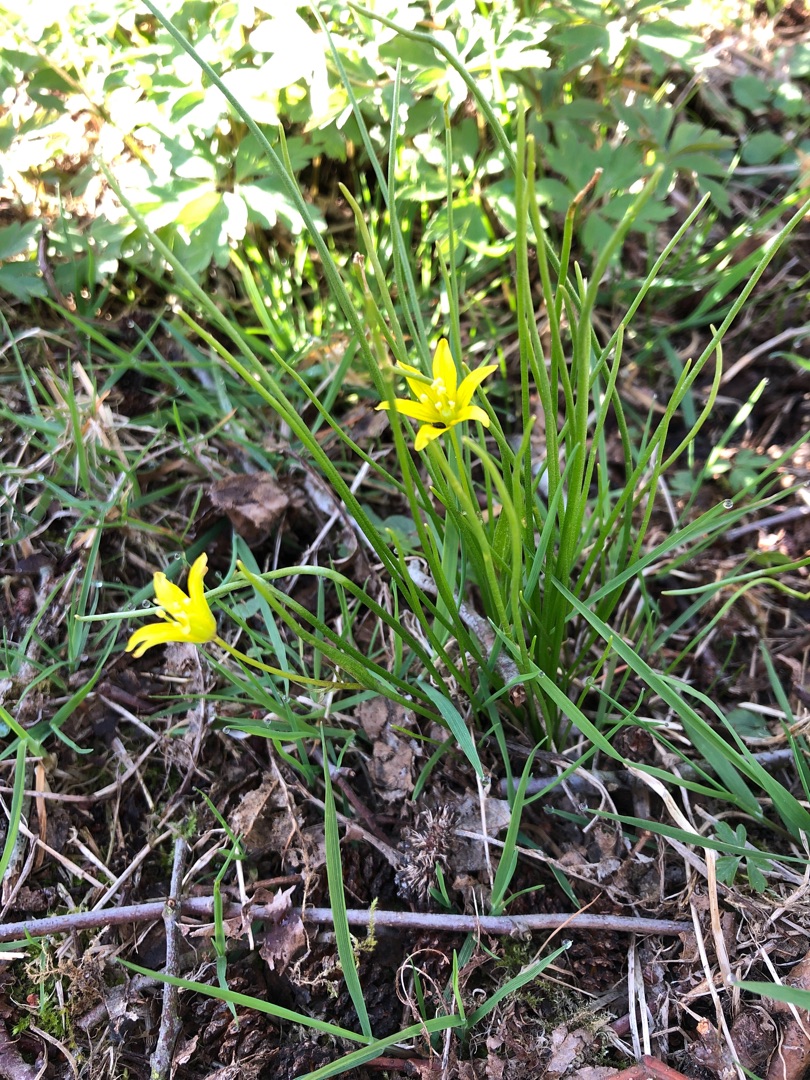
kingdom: Plantae
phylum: Tracheophyta
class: Liliopsida
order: Liliales
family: Liliaceae
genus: Gagea
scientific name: Gagea spathacea
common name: Hylster-guldstjerne
